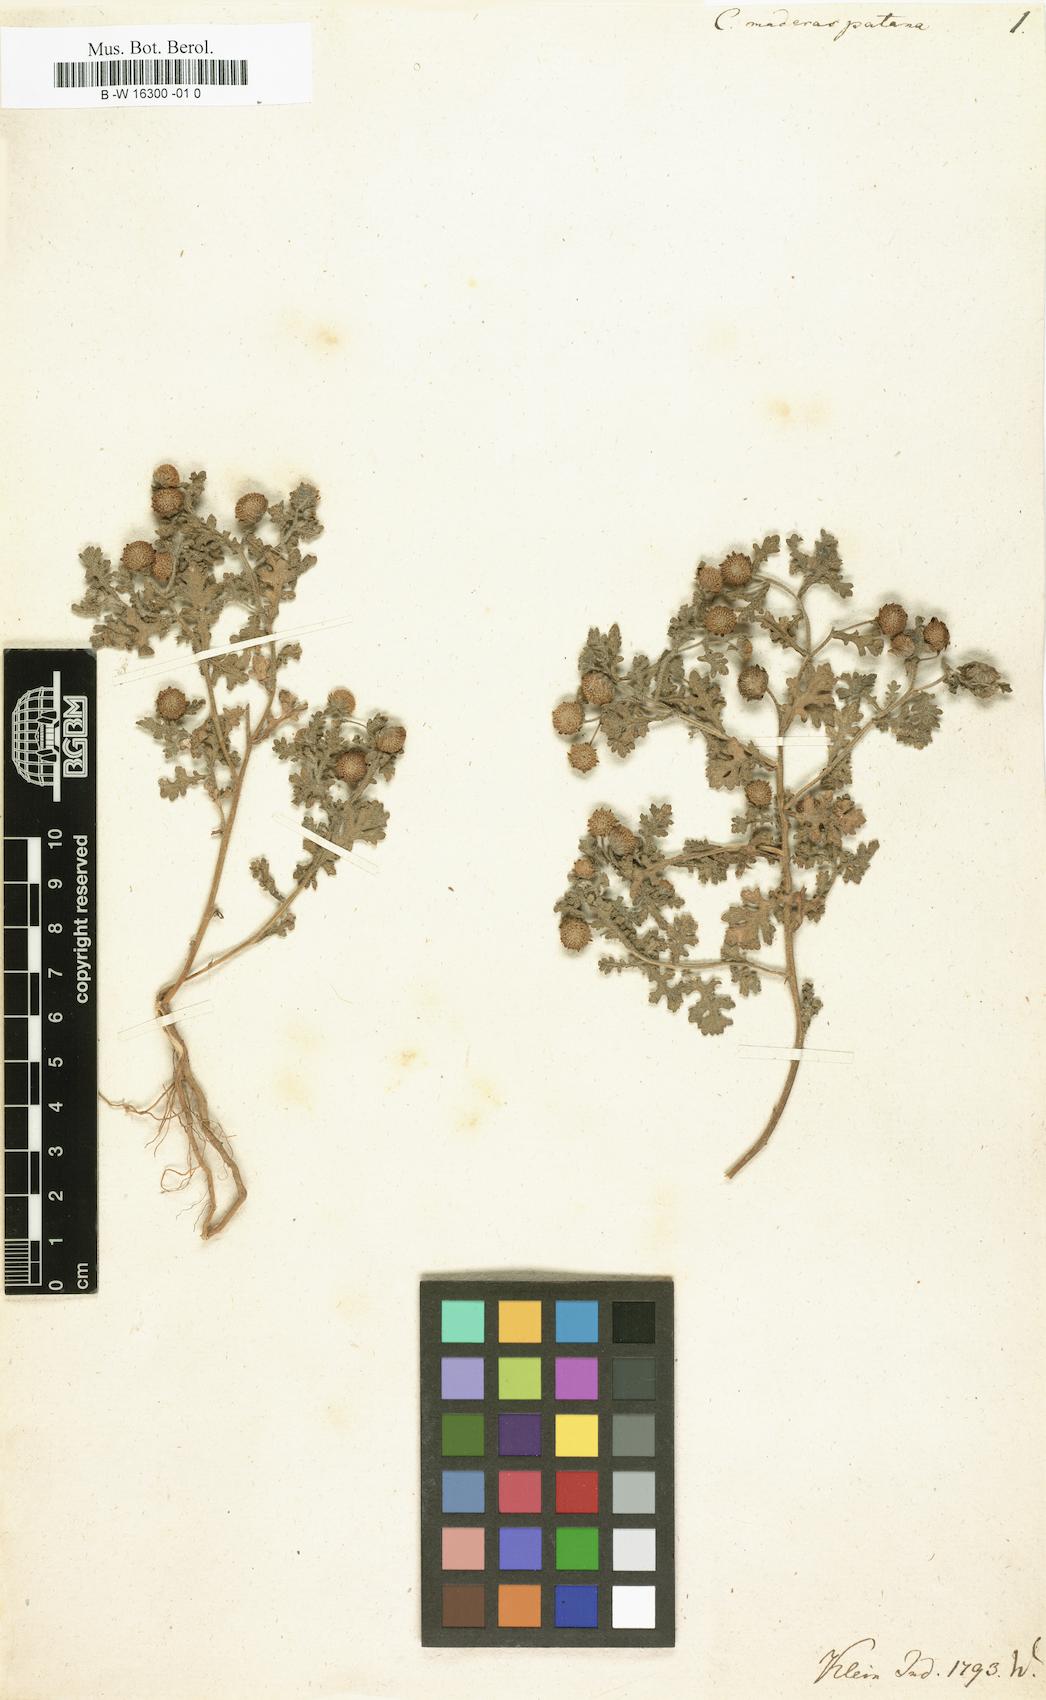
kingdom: Plantae
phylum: Tracheophyta
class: Magnoliopsida
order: Asterales
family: Asteraceae
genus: Grangea
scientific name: Grangea maderaspatana
